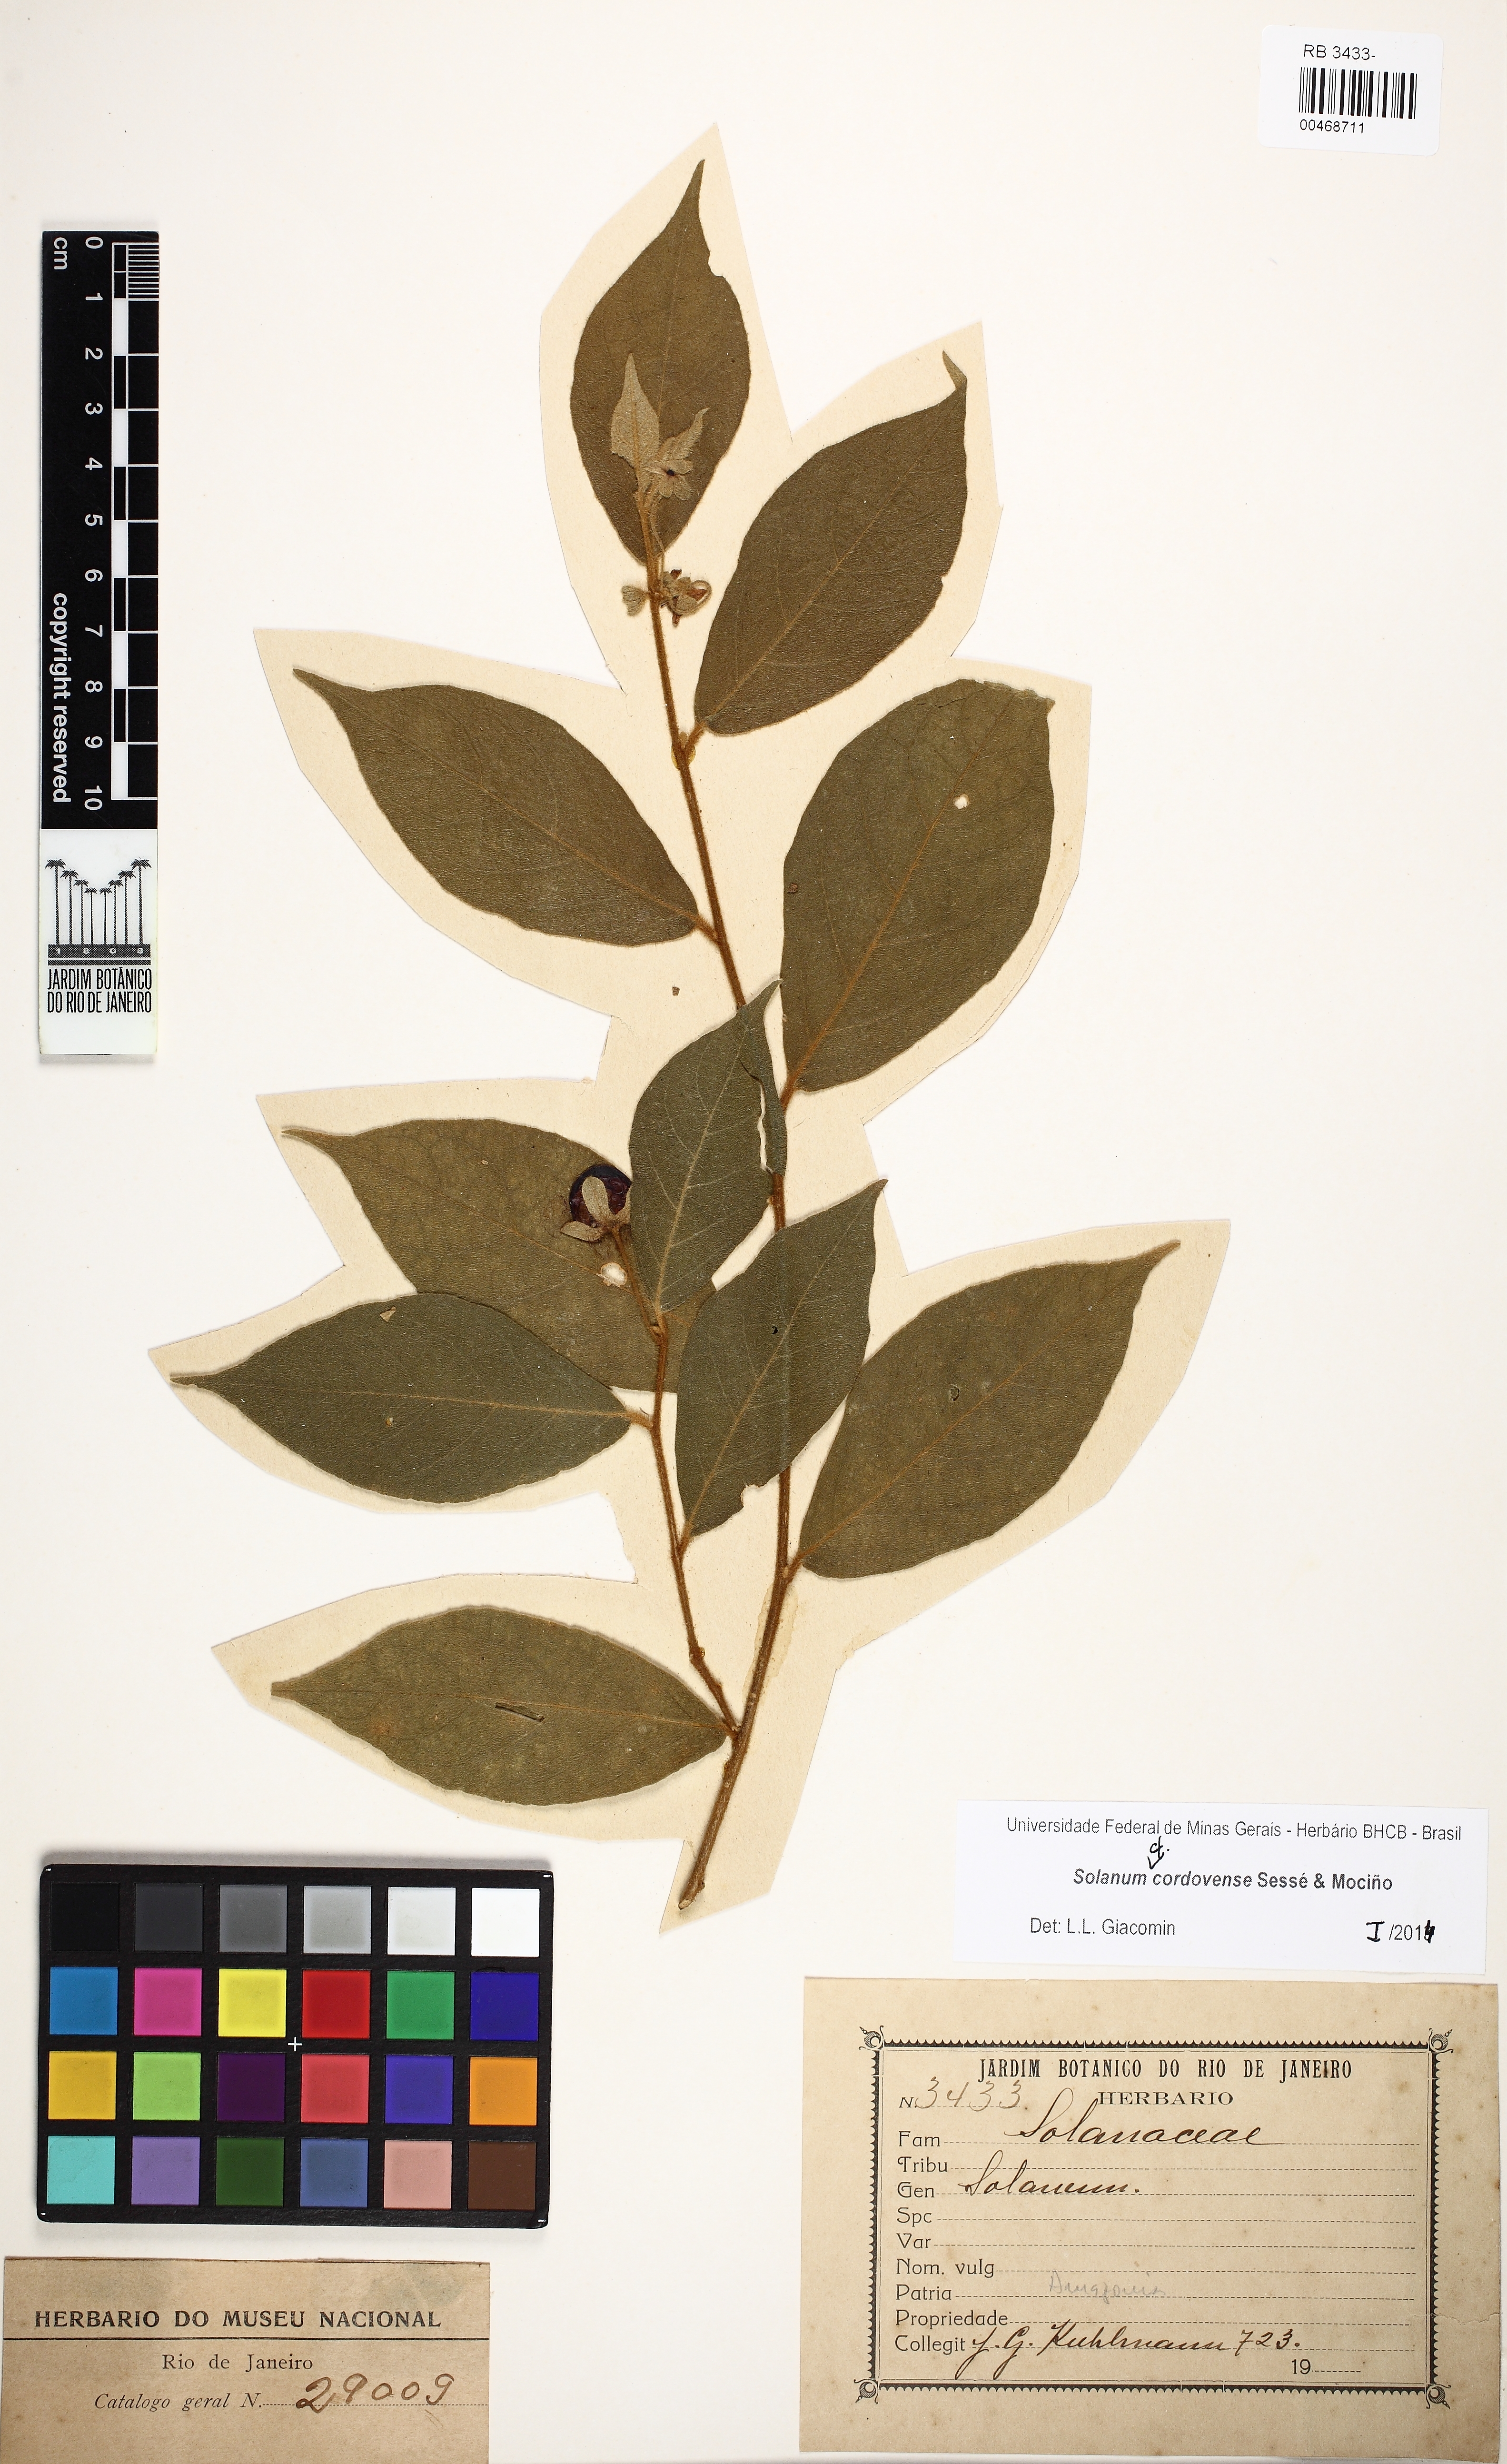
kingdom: Plantae
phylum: Tracheophyta
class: Magnoliopsida
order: Solanales
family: Solanaceae
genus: Solanum
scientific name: Solanum cordovense
